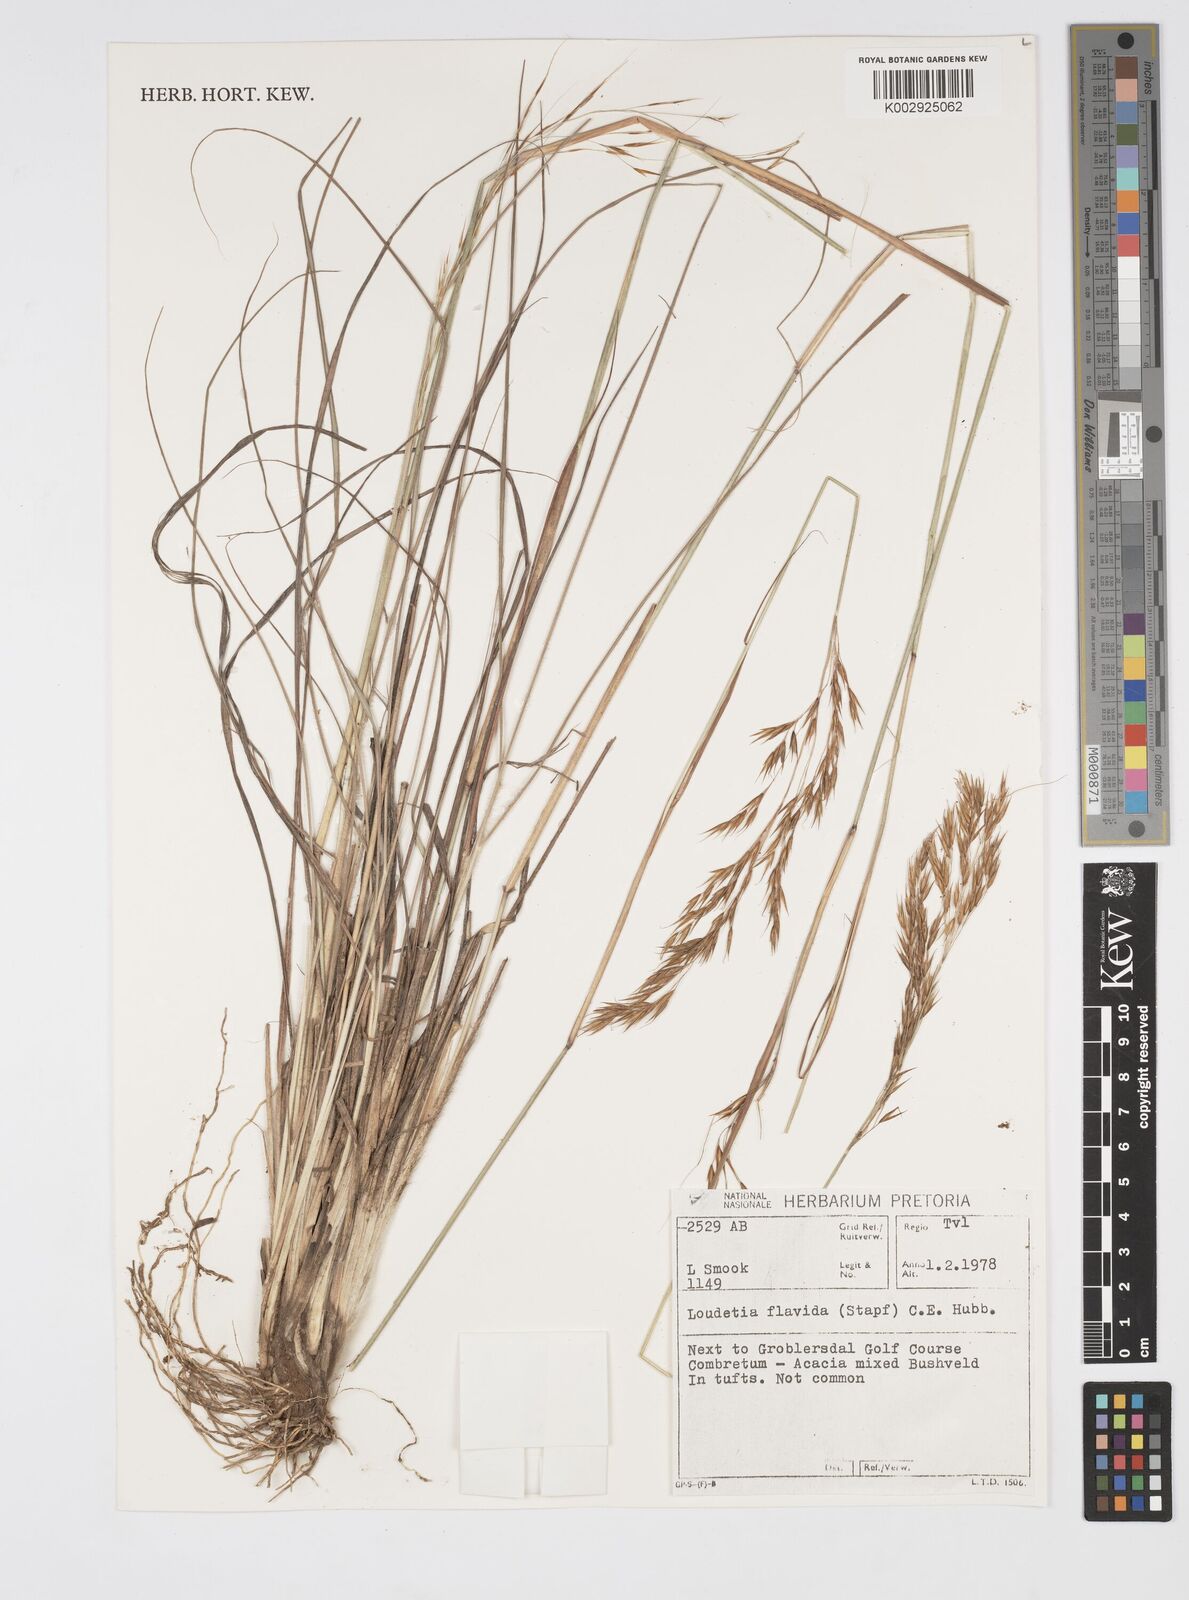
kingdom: Plantae
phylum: Tracheophyta
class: Liliopsida
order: Poales
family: Poaceae
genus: Loudetia
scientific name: Loudetia flavida
